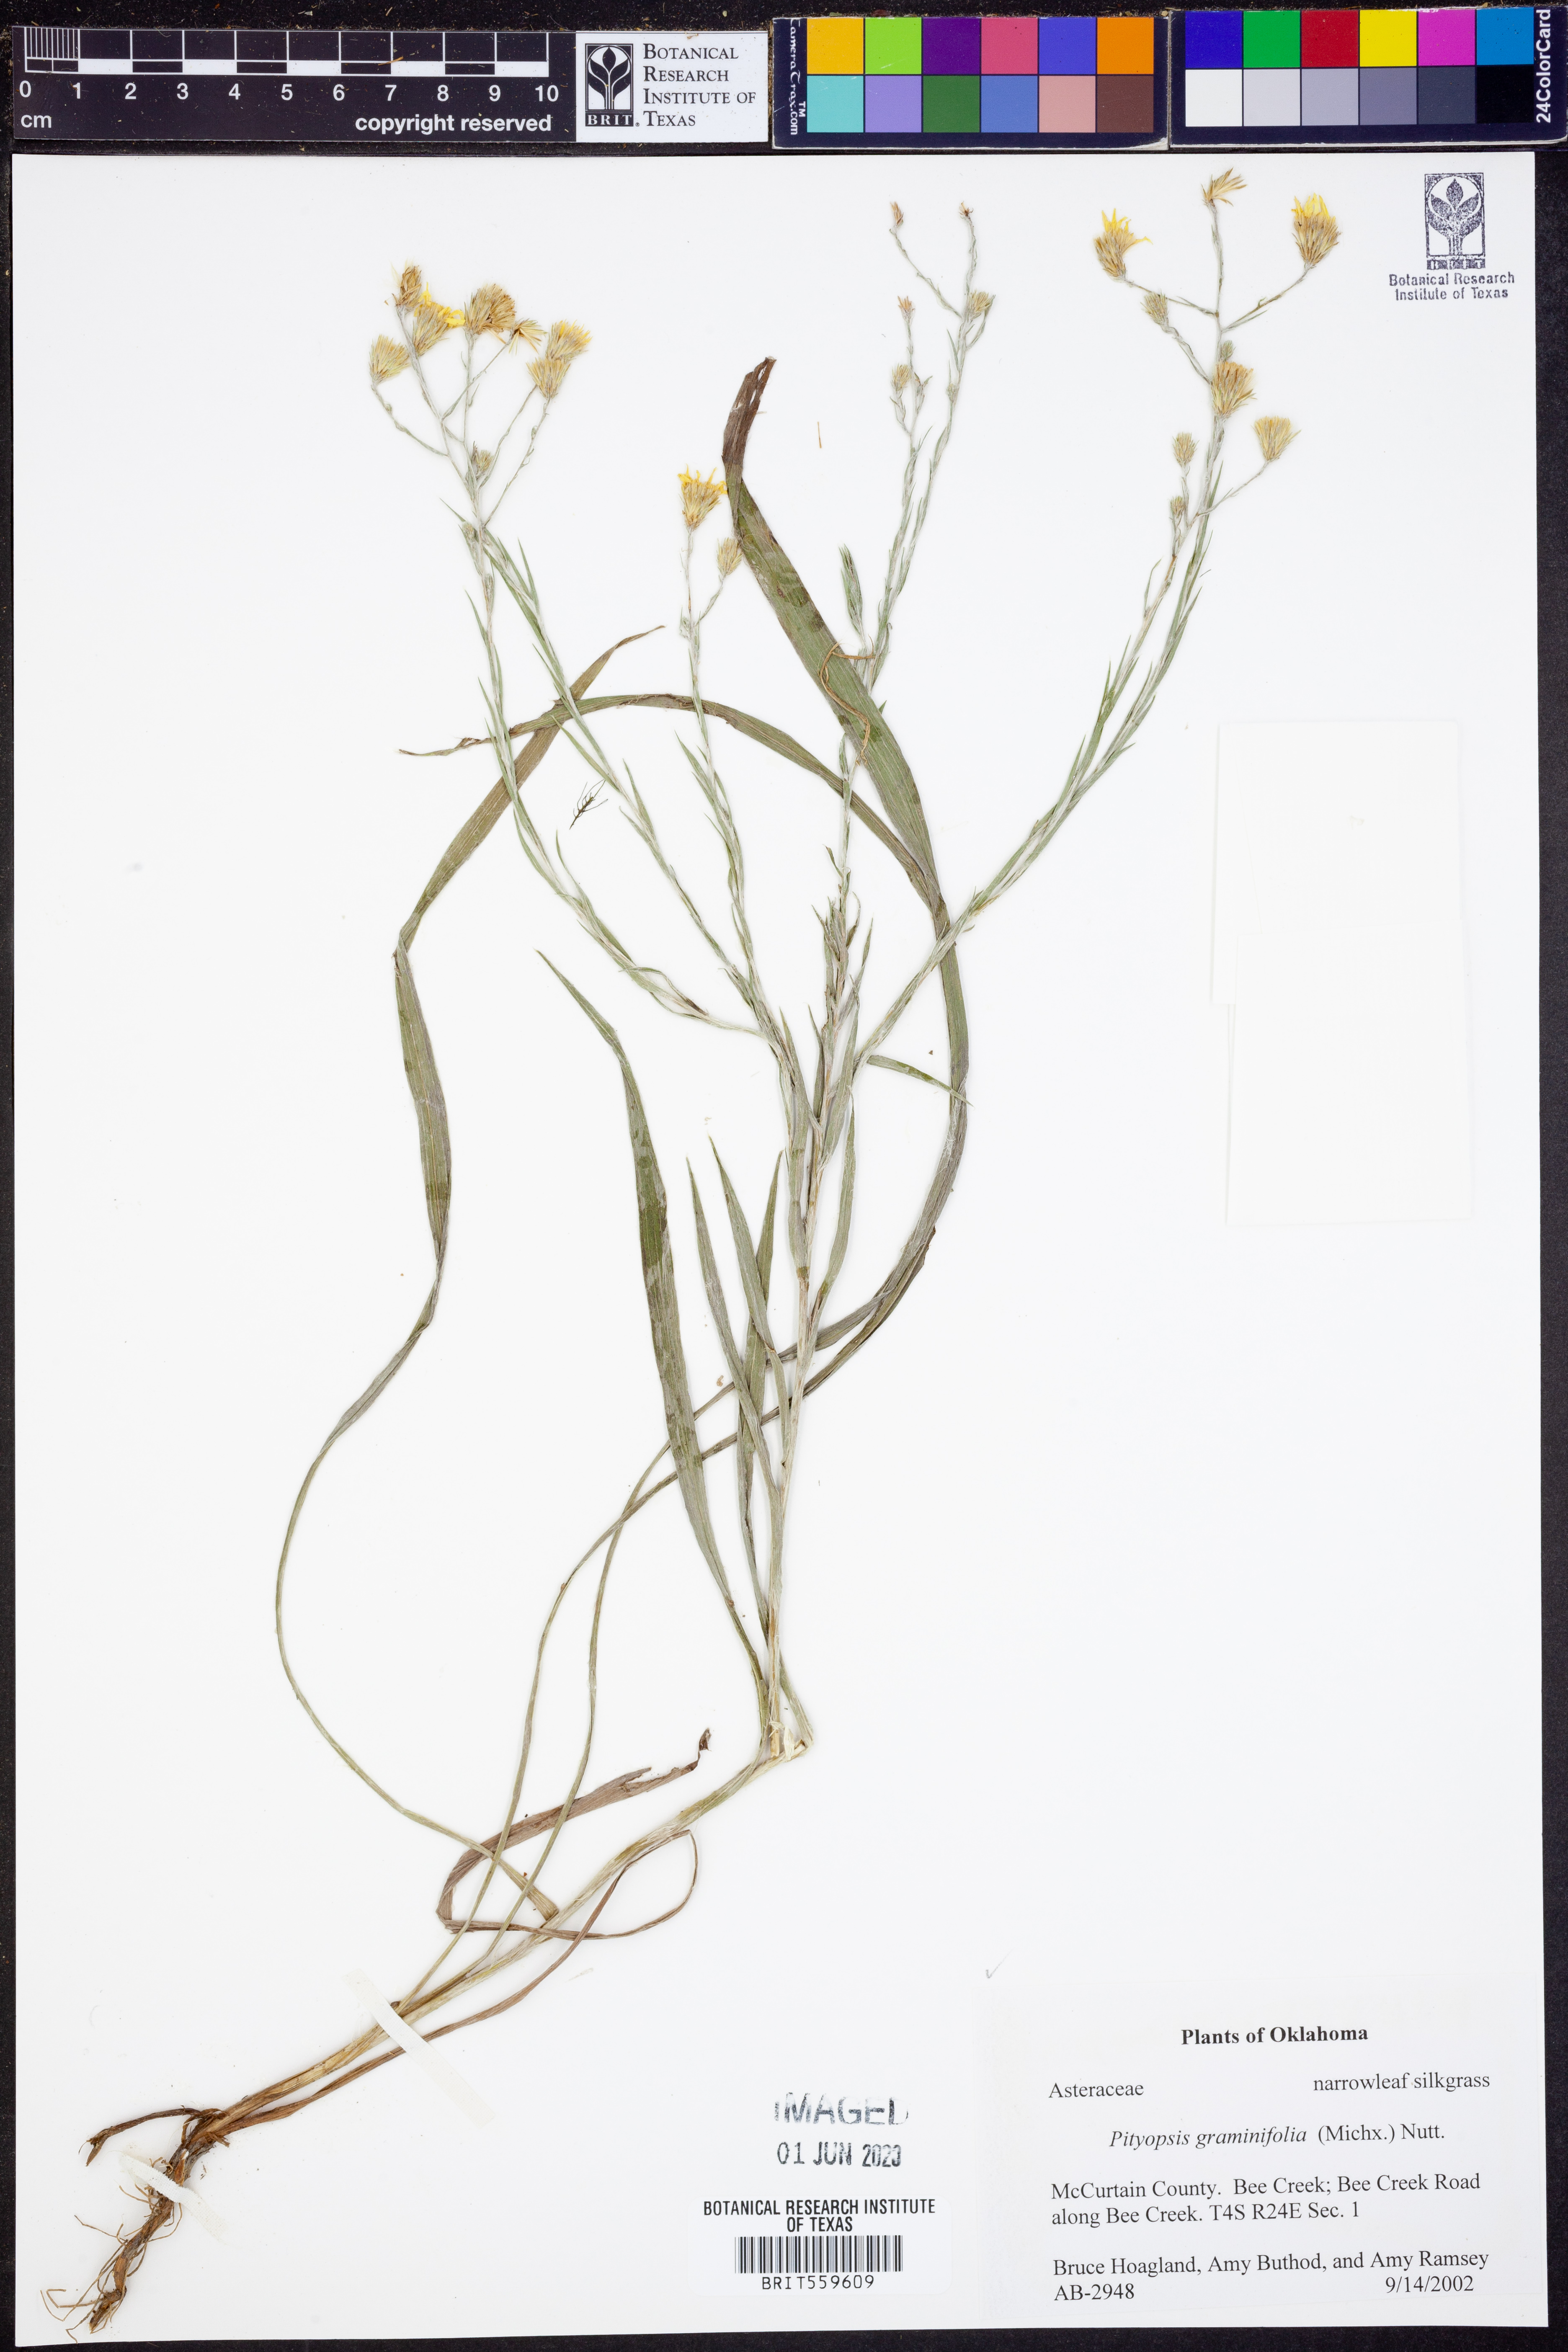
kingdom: Plantae
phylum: Tracheophyta
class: Magnoliopsida
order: Asterales
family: Asteraceae
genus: Pityopsis
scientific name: Pityopsis graminifolia
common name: Grass-leaf golden-aster
